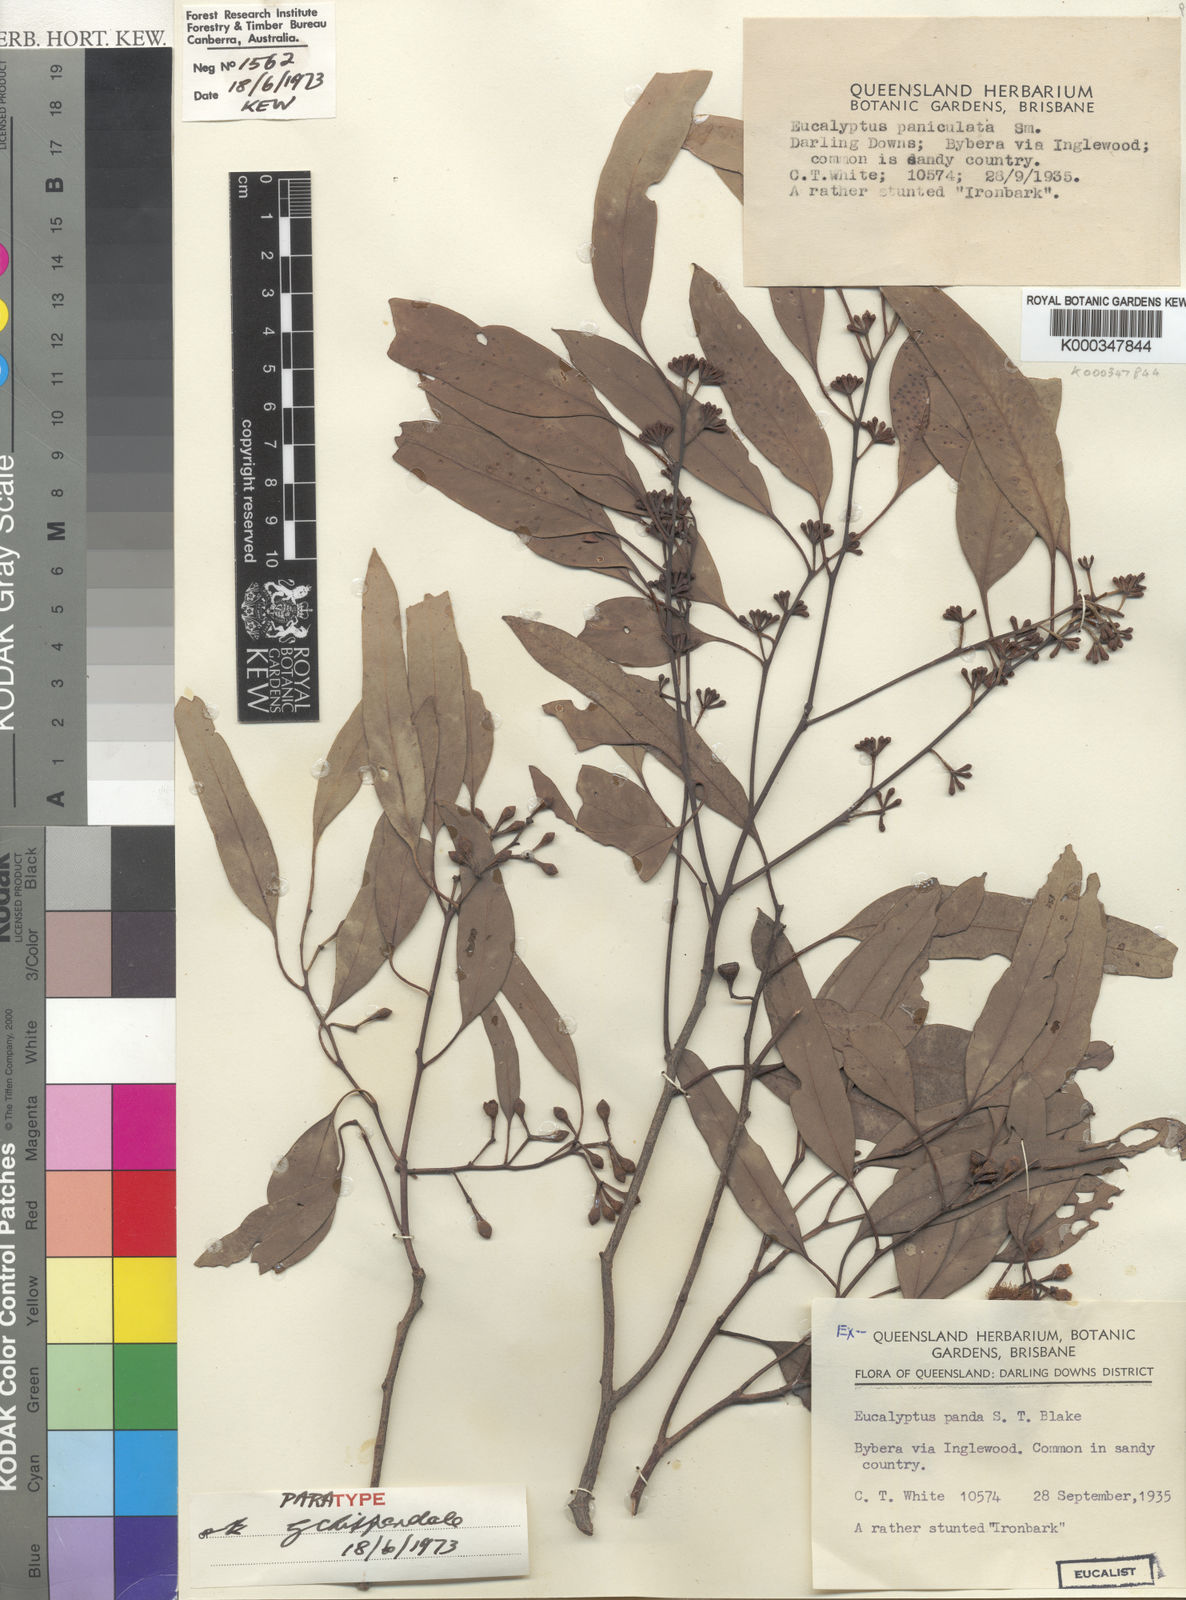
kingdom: Plantae
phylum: Tracheophyta
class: Magnoliopsida
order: Myrtales
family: Myrtaceae
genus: Eucalyptus
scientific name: Eucalyptus panda
